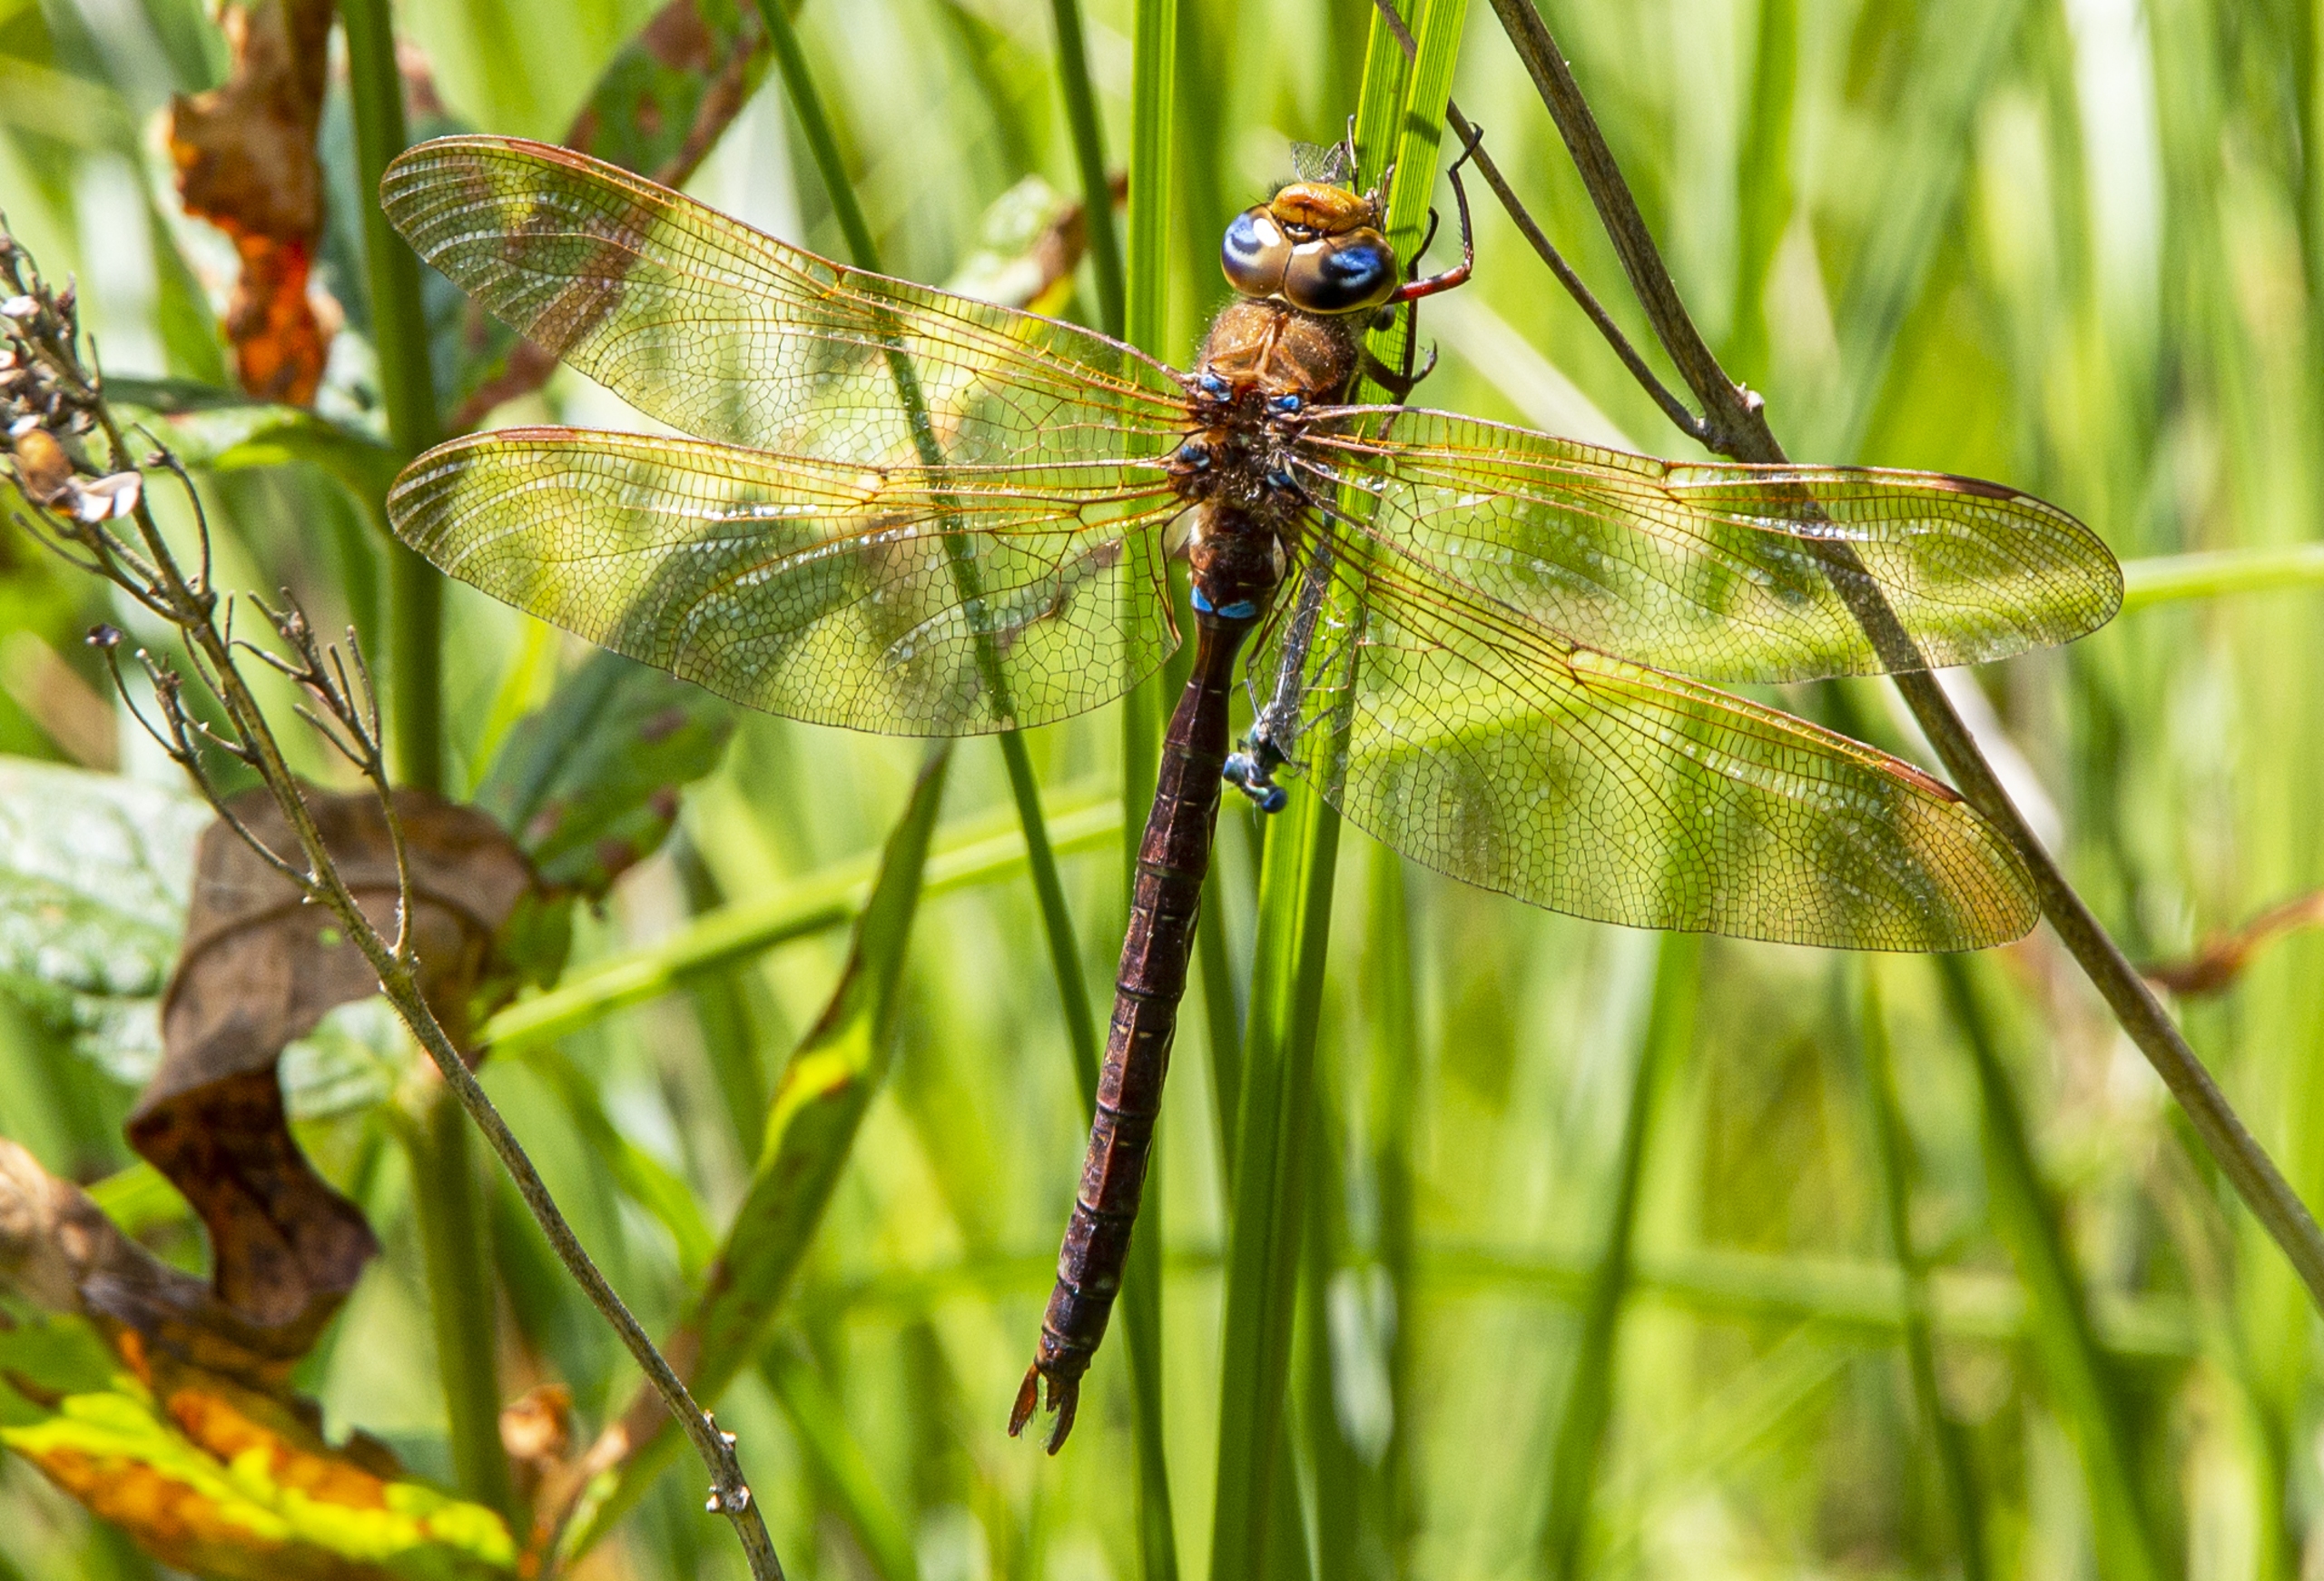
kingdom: Animalia
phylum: Arthropoda
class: Insecta
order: Odonata
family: Aeshnidae
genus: Aeshna
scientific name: Aeshna grandis
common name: Brun mosaikguldsmed
